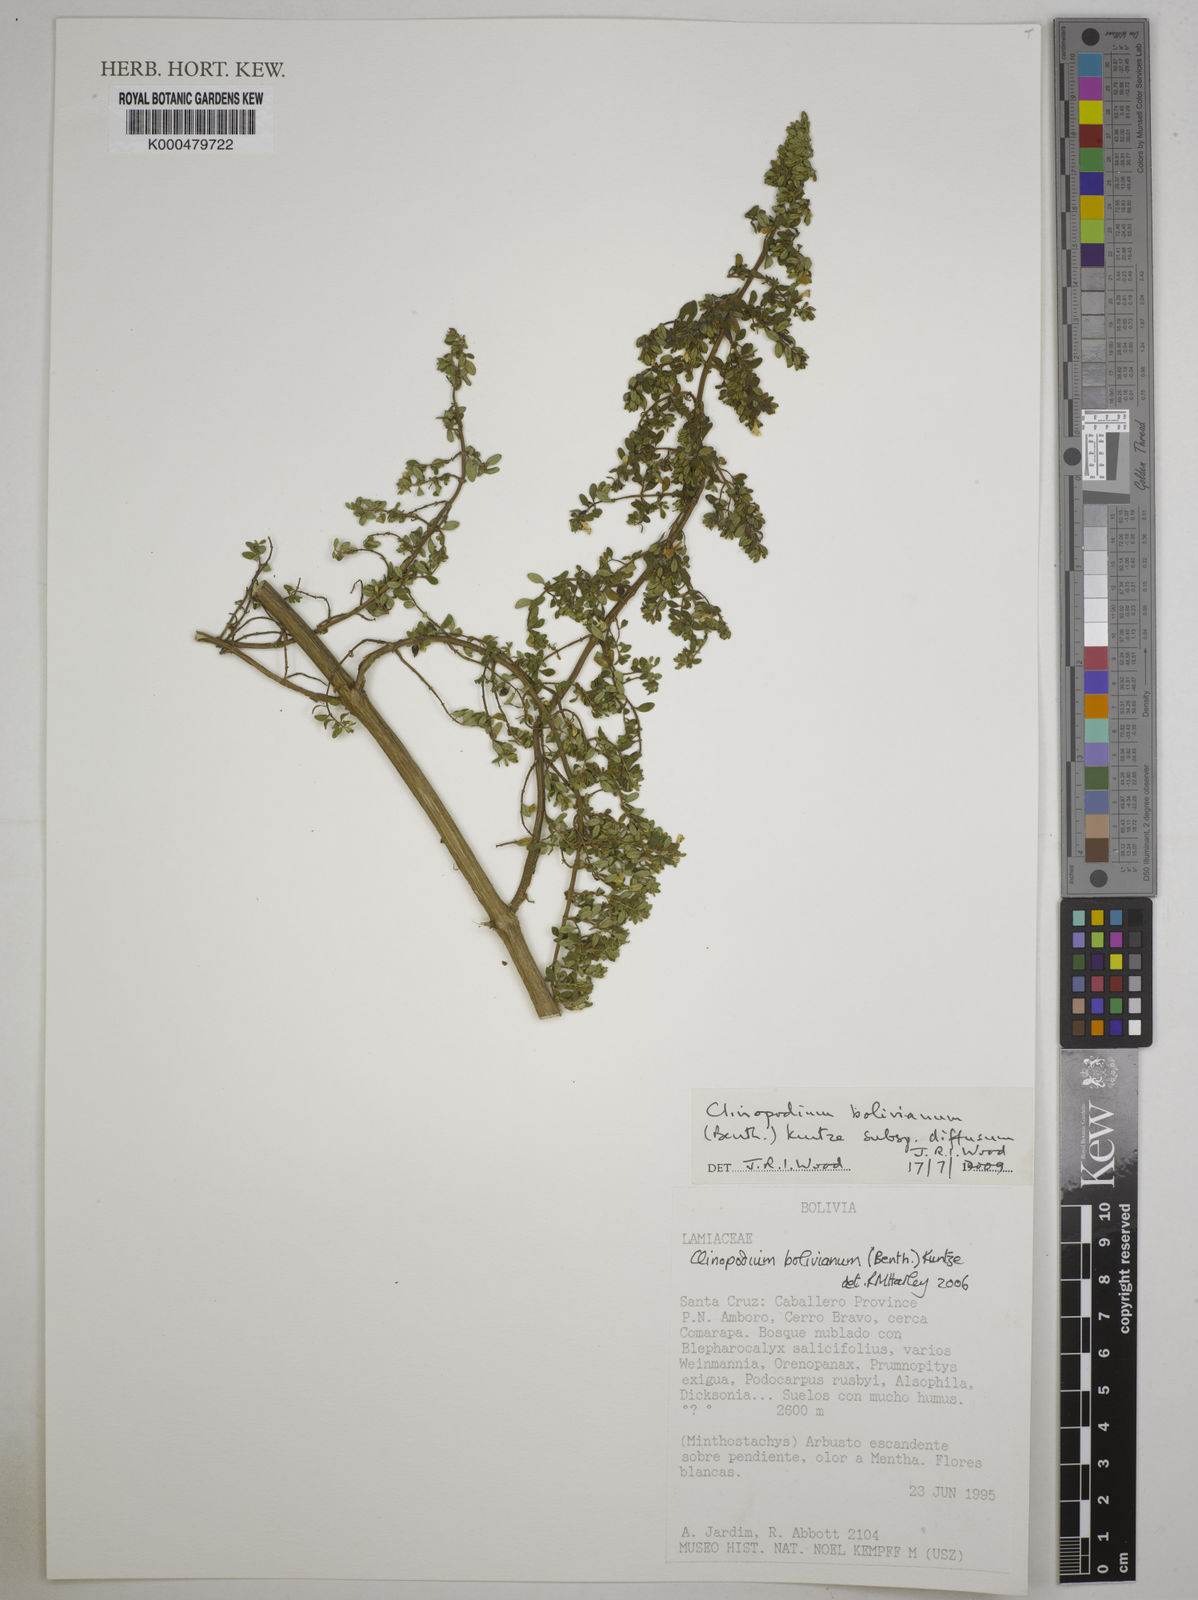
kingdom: Plantae
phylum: Tracheophyta
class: Magnoliopsida
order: Lamiales
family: Lamiaceae
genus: Clinopodium
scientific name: Clinopodium bolivianum
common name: Inca muña
